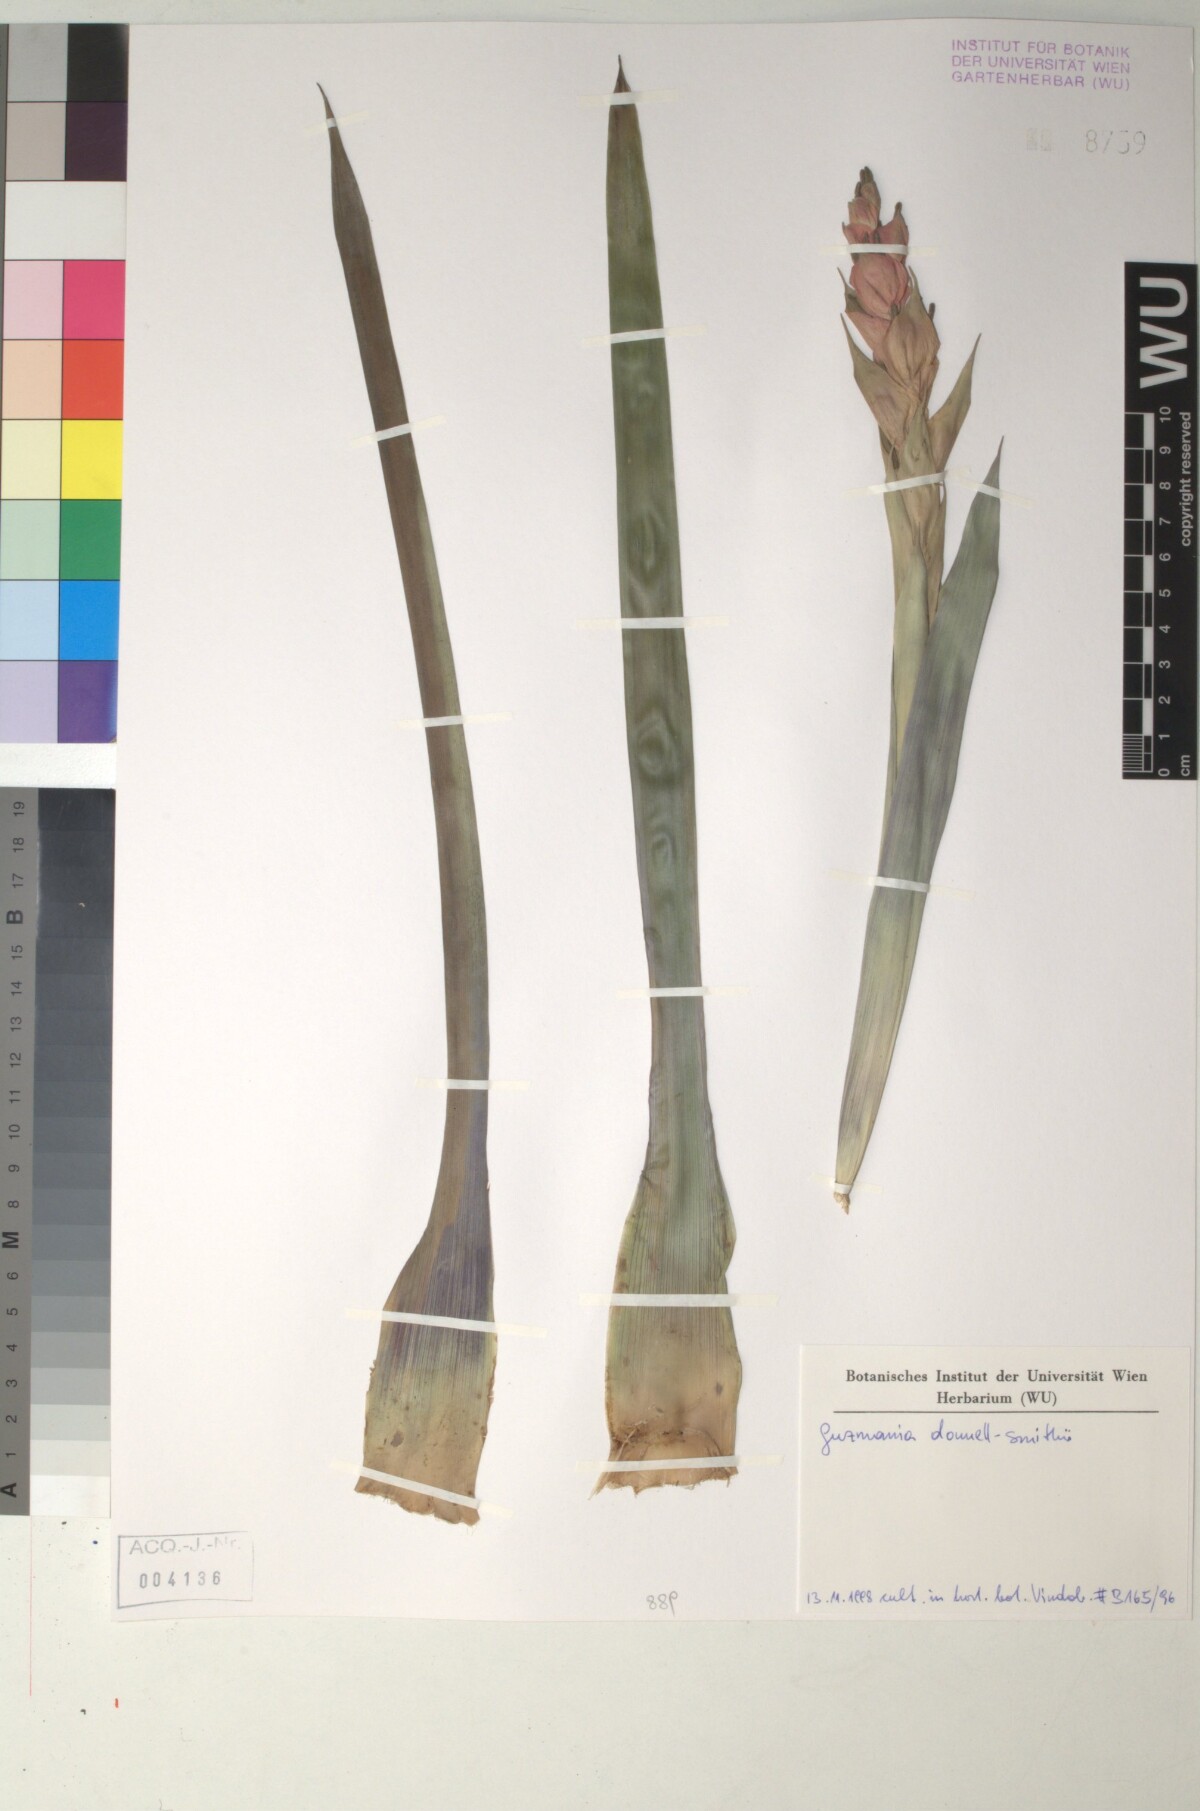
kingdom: Plantae
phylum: Tracheophyta
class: Liliopsida
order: Poales
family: Bromeliaceae
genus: Guzmania
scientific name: Guzmania donnellsmithii
